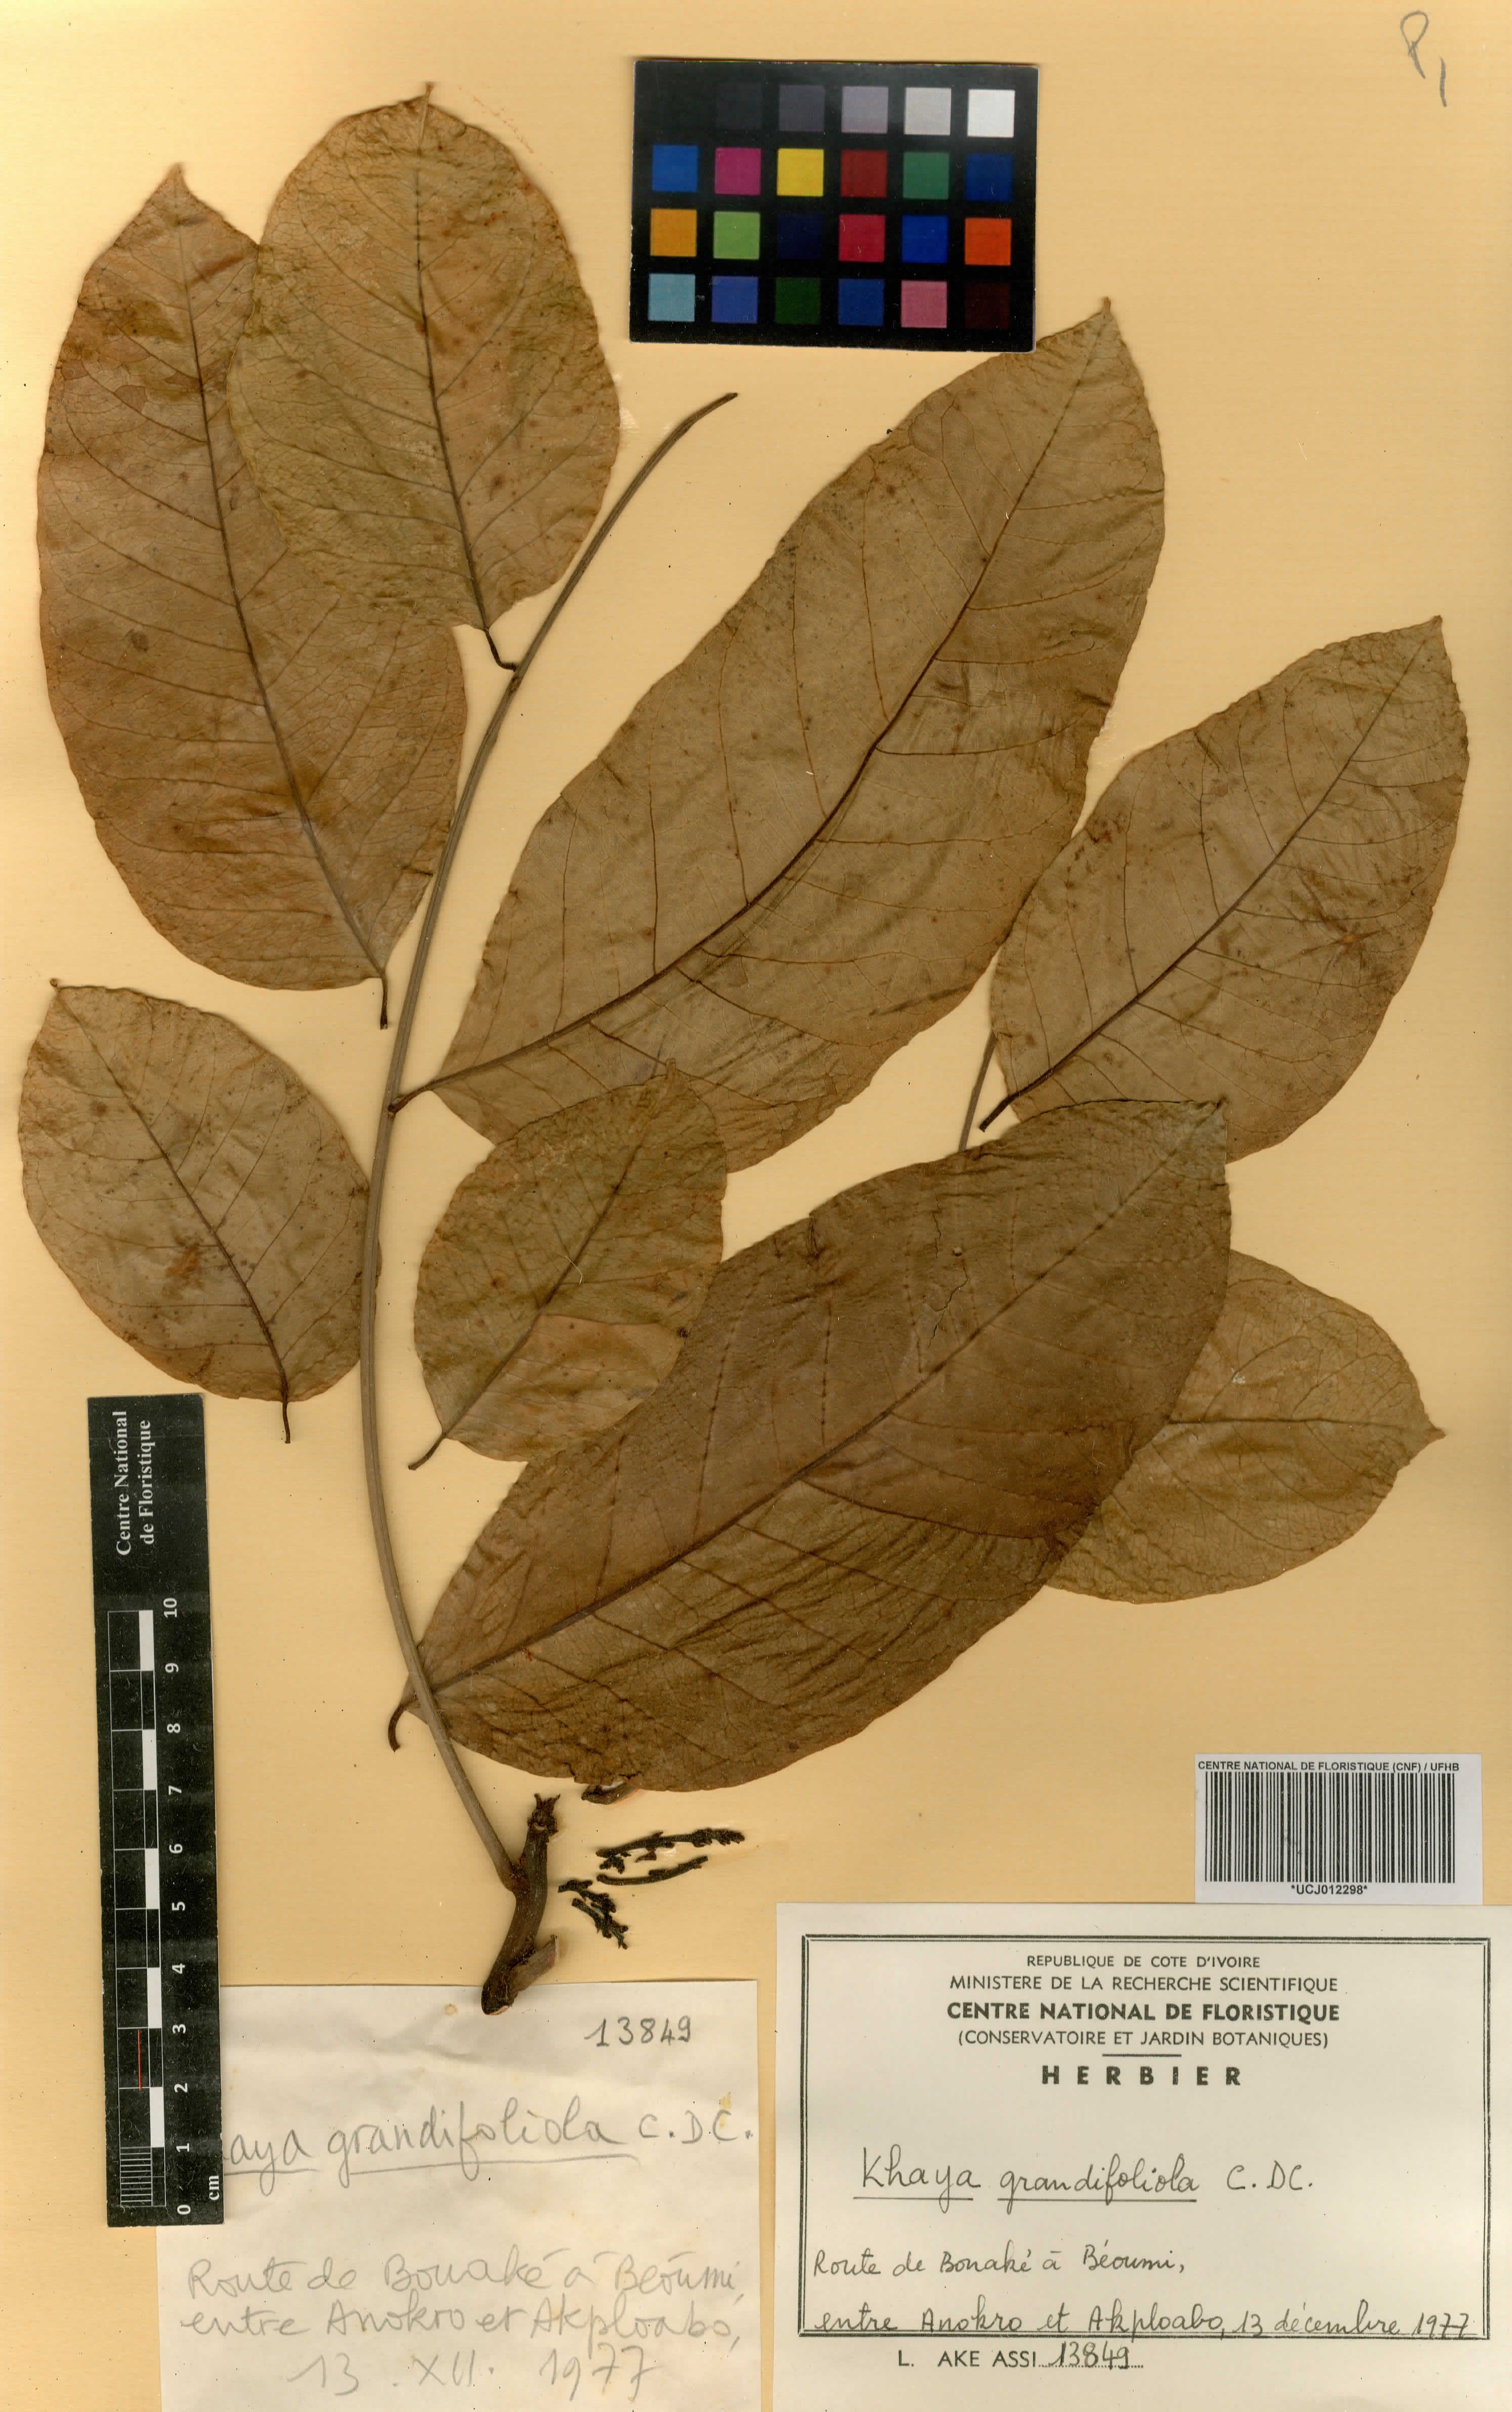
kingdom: Plantae
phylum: Tracheophyta
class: Magnoliopsida
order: Sapindales
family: Meliaceae
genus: Khaya
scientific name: Khaya grandifoliola
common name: African mahogany
